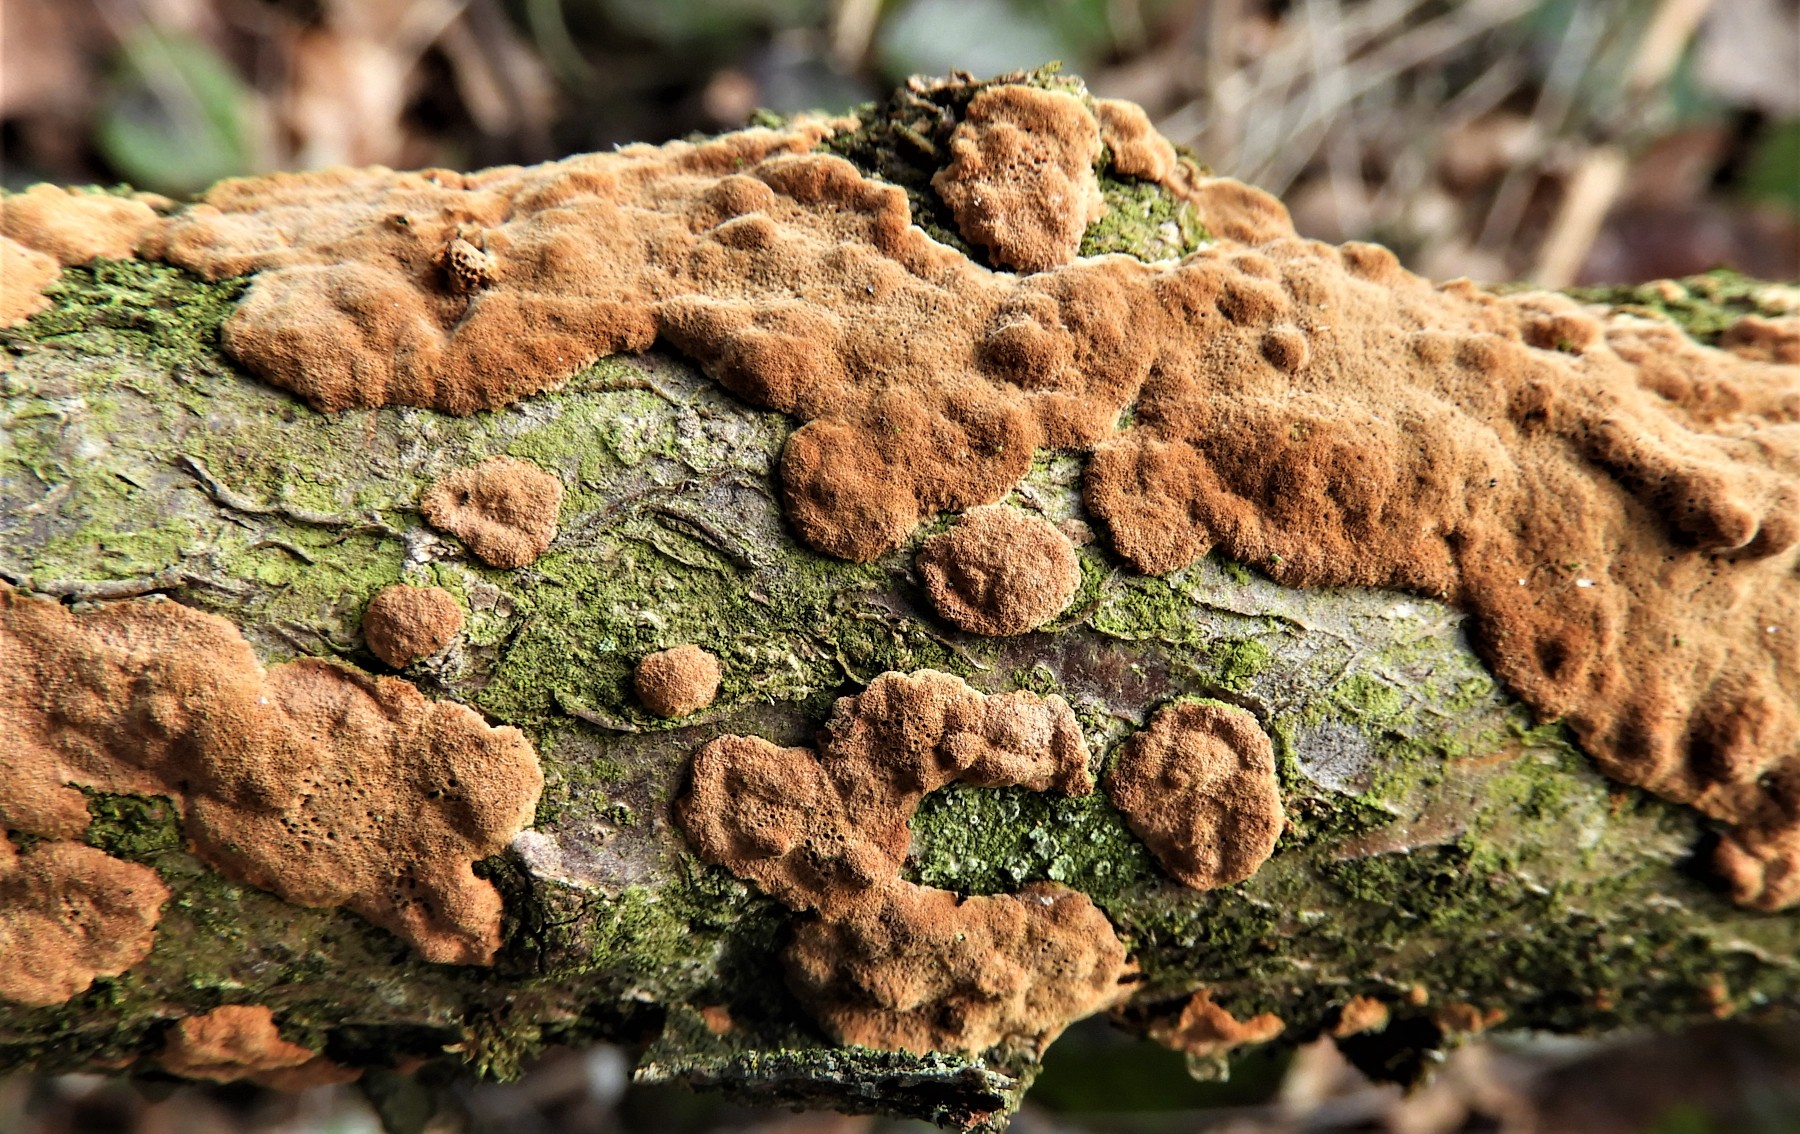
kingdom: Fungi
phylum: Basidiomycota
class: Agaricomycetes
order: Hymenochaetales
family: Hymenochaetaceae
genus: Fuscoporia
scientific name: Fuscoporia ferrea
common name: skorpe-ildporesvamp
